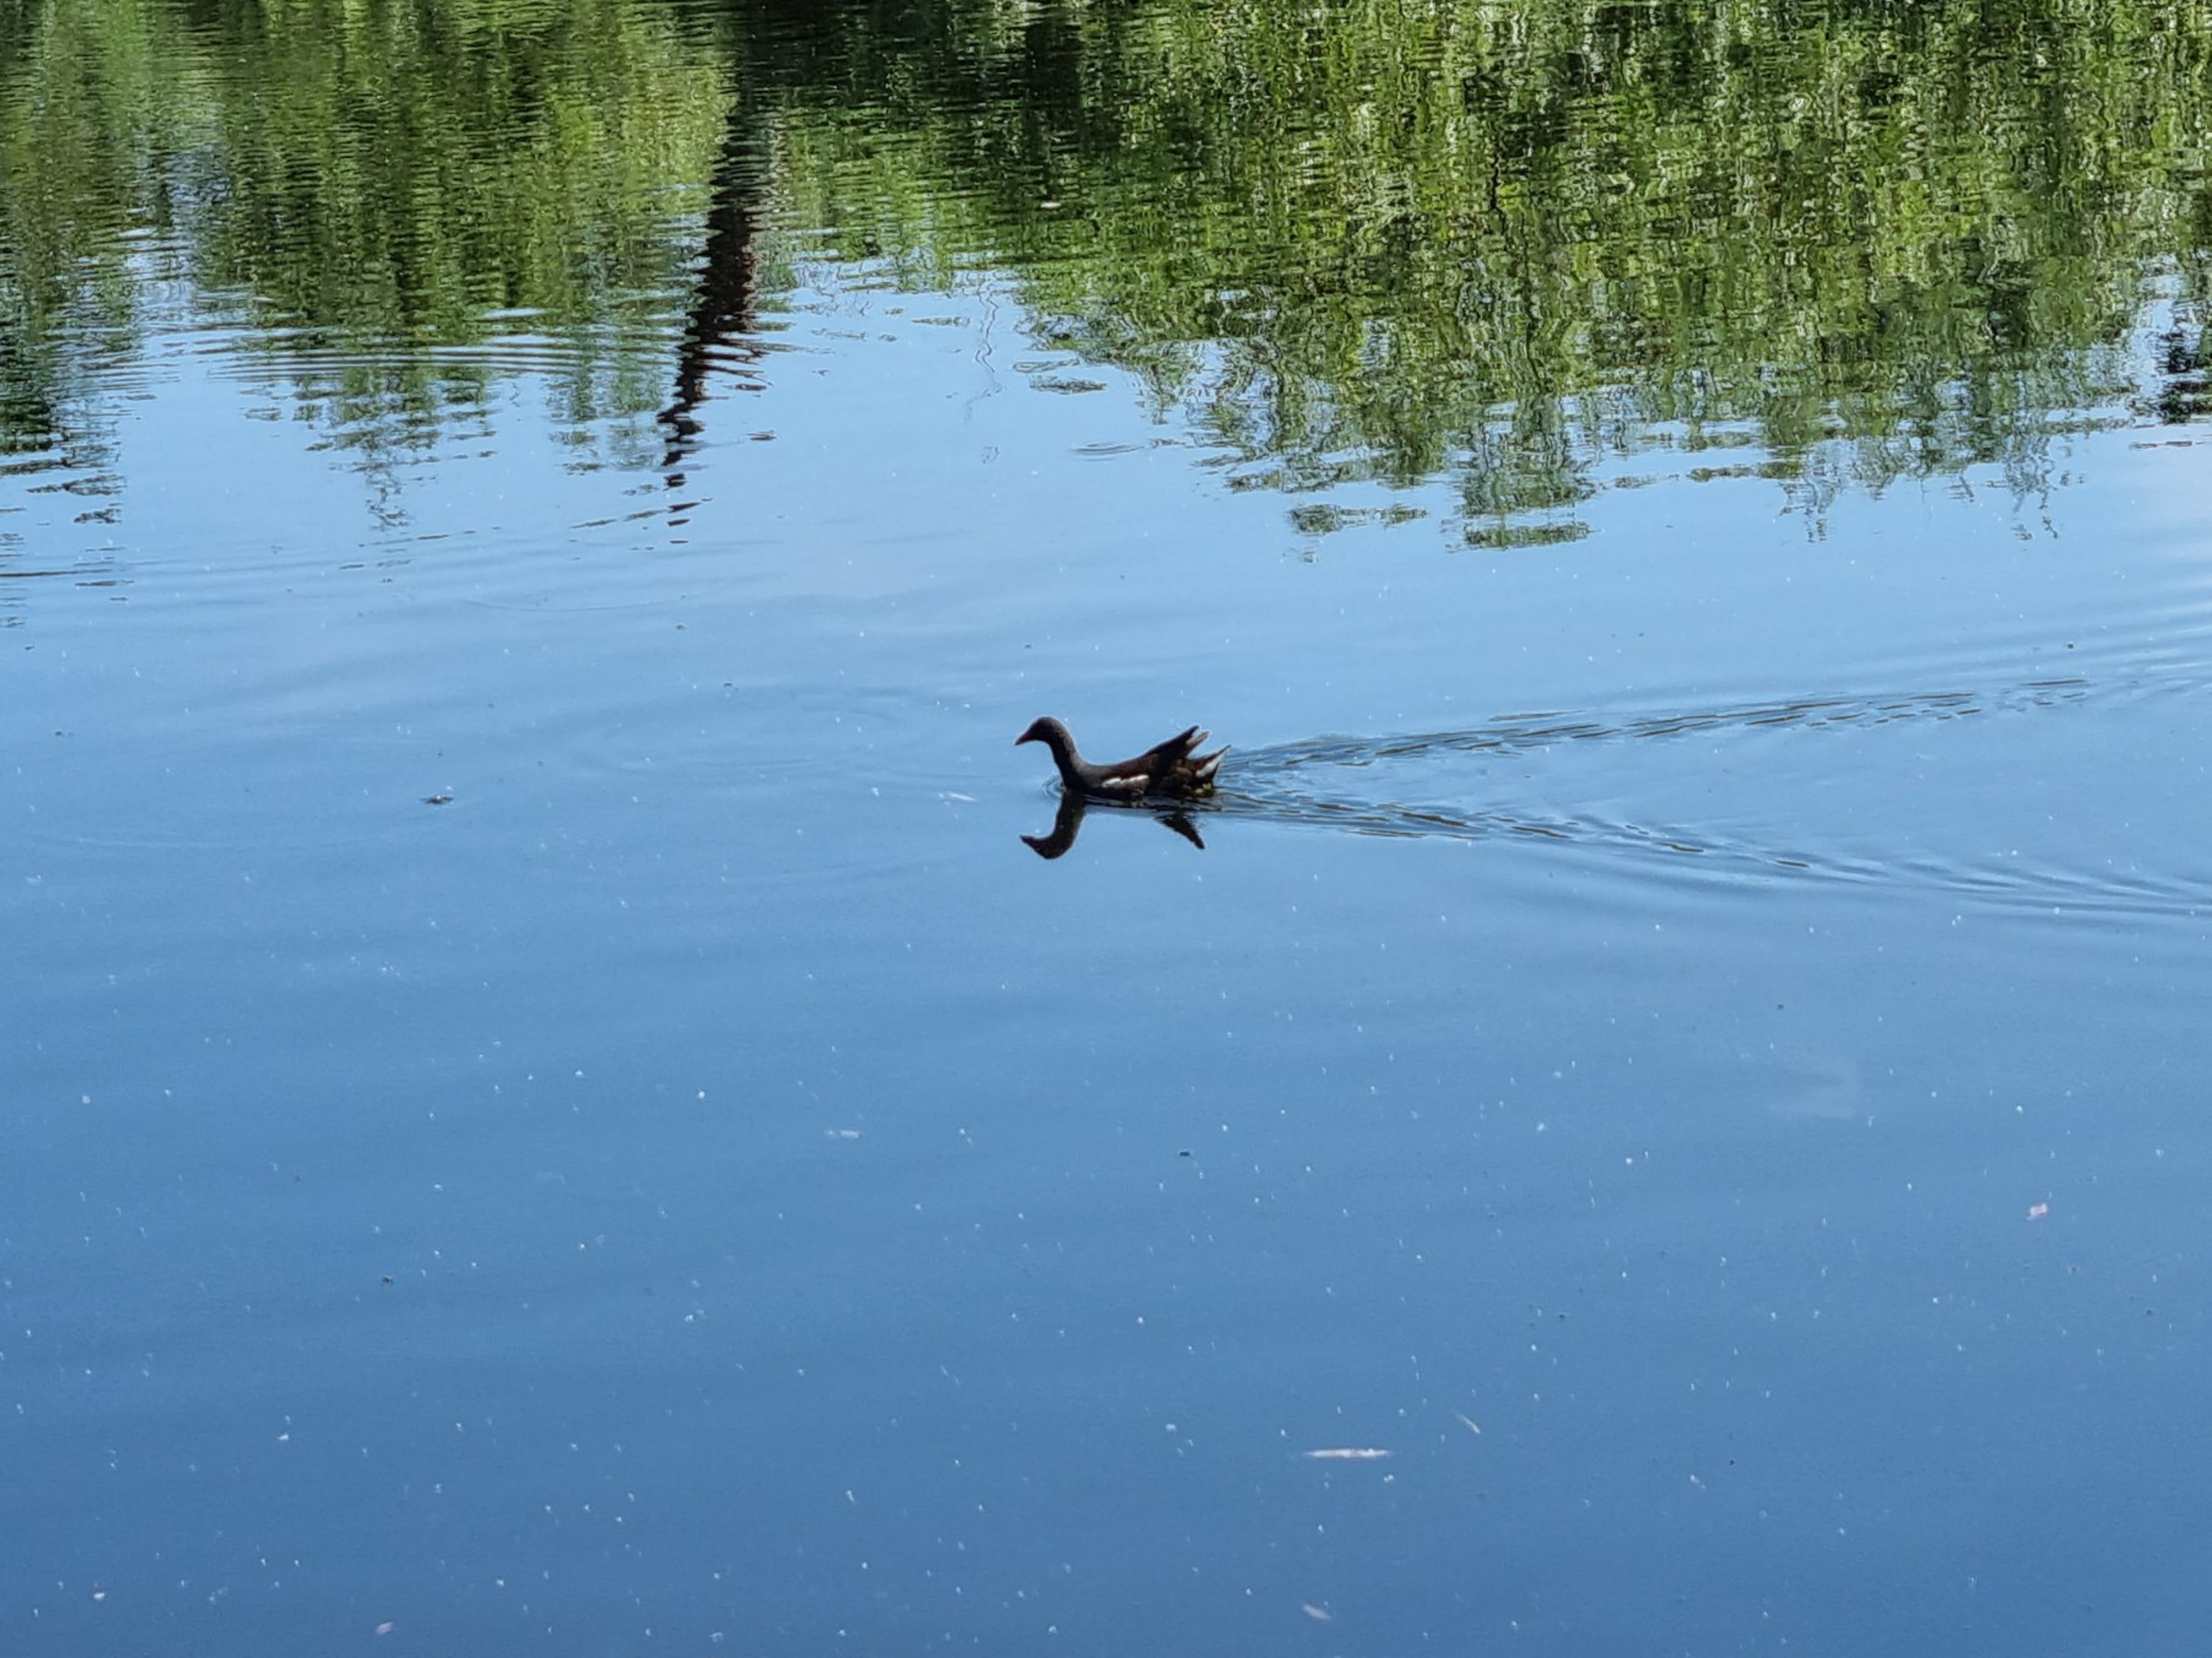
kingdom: Animalia
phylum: Chordata
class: Aves
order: Gruiformes
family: Rallidae
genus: Gallinula
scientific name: Gallinula chloropus
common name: Grønbenet rørhøne
